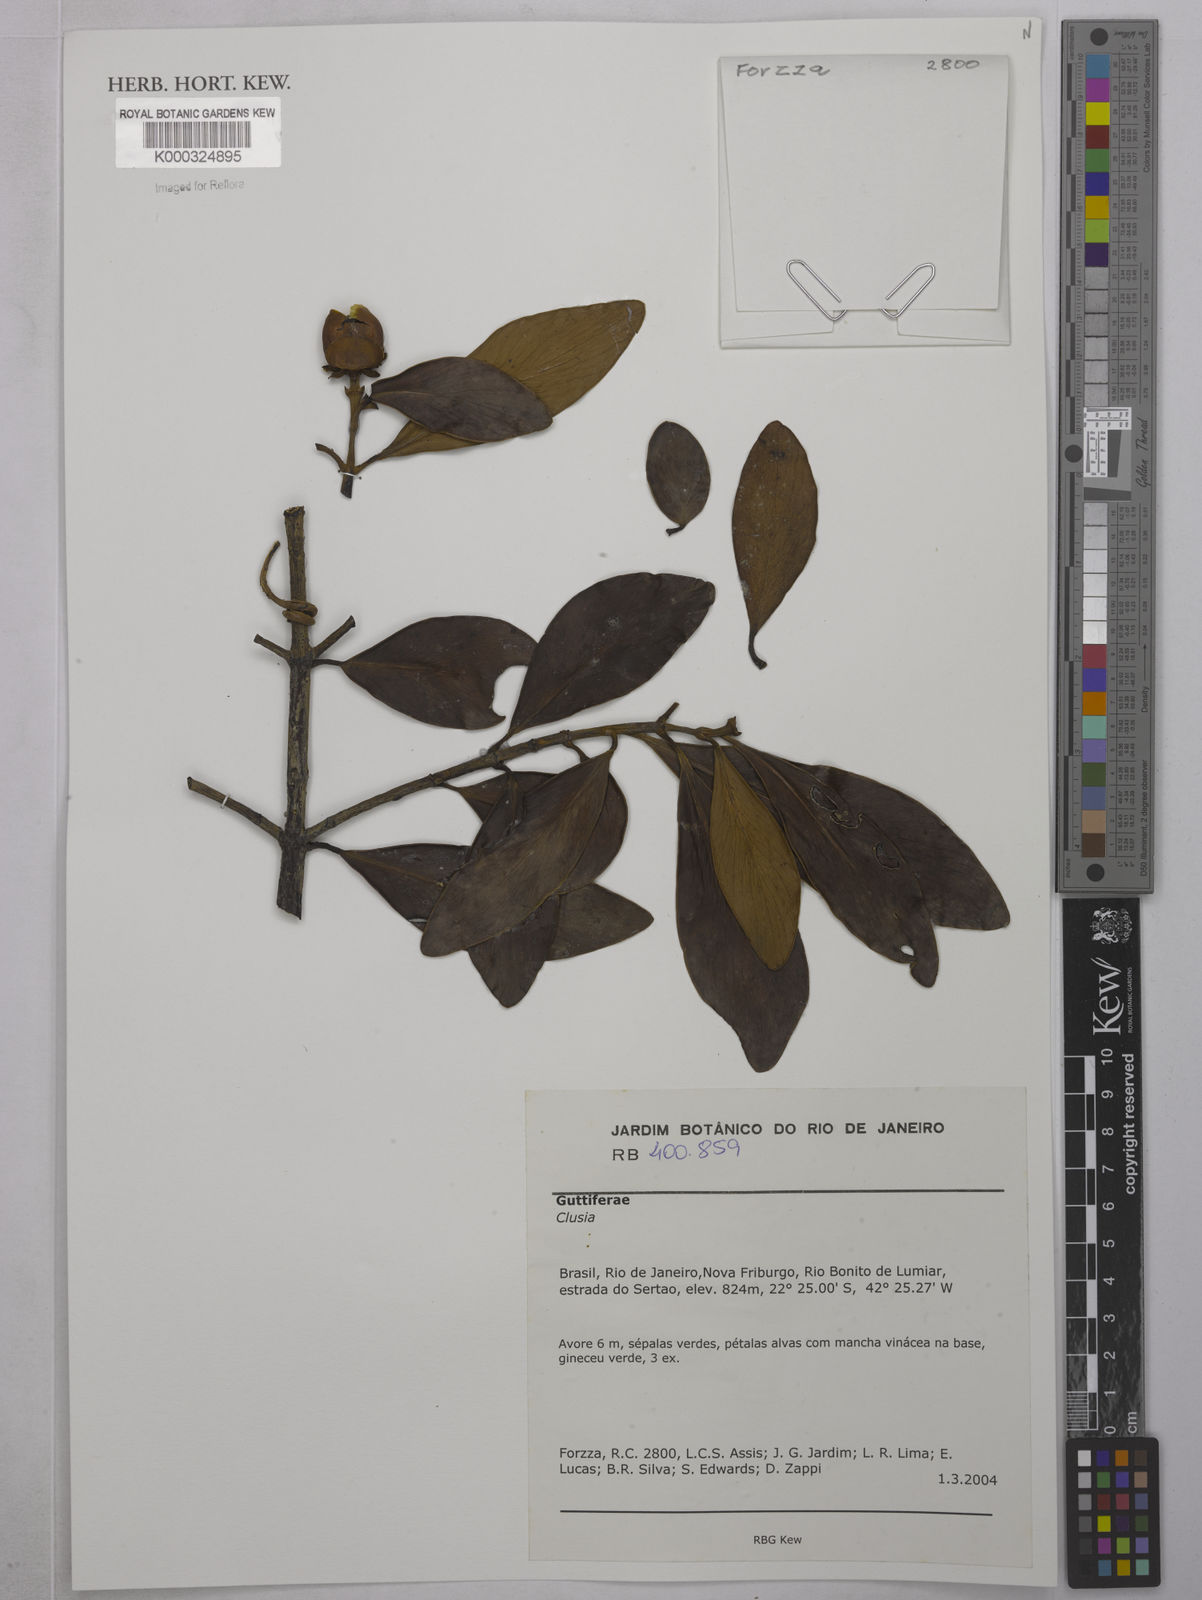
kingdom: Plantae
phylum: Tracheophyta
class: Magnoliopsida
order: Malpighiales
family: Clusiaceae
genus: Clusia
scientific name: Clusia
